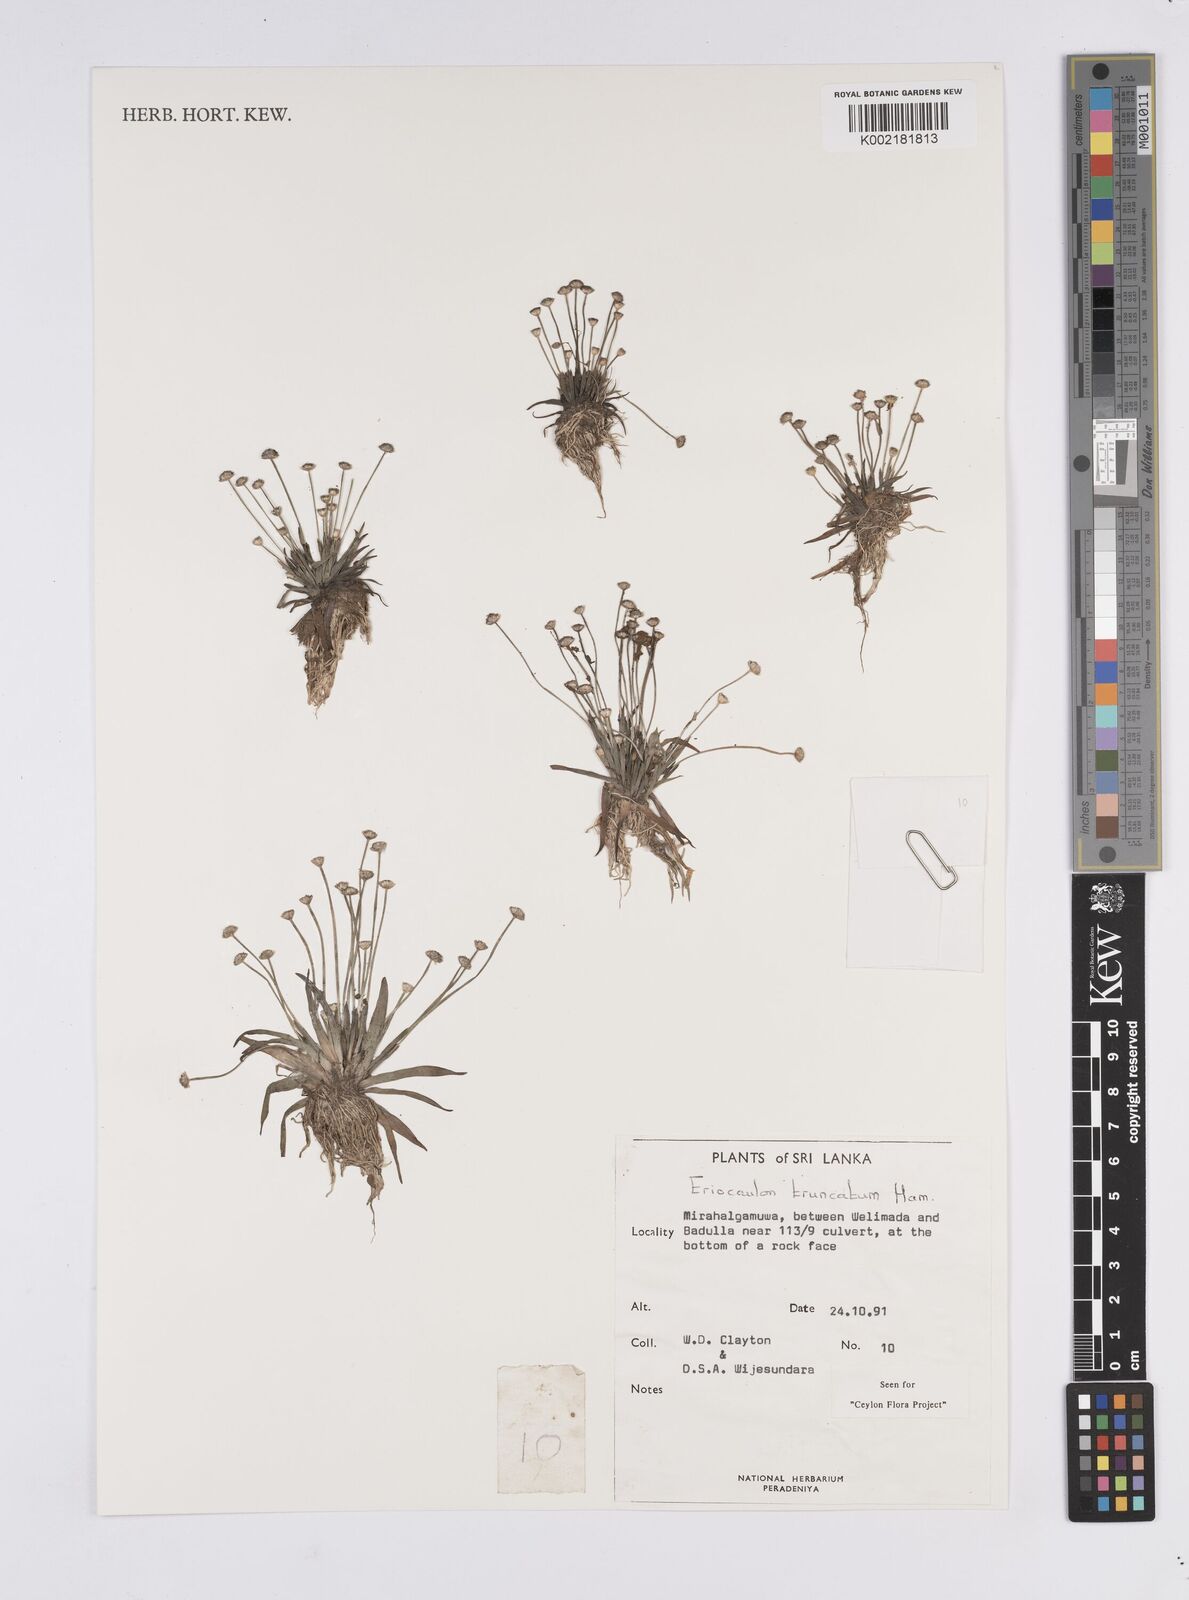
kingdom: Plantae
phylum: Tracheophyta
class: Liliopsida
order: Poales
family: Eriocaulaceae
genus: Eriocaulon
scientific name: Eriocaulon truncatum
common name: Short pipe-wort
